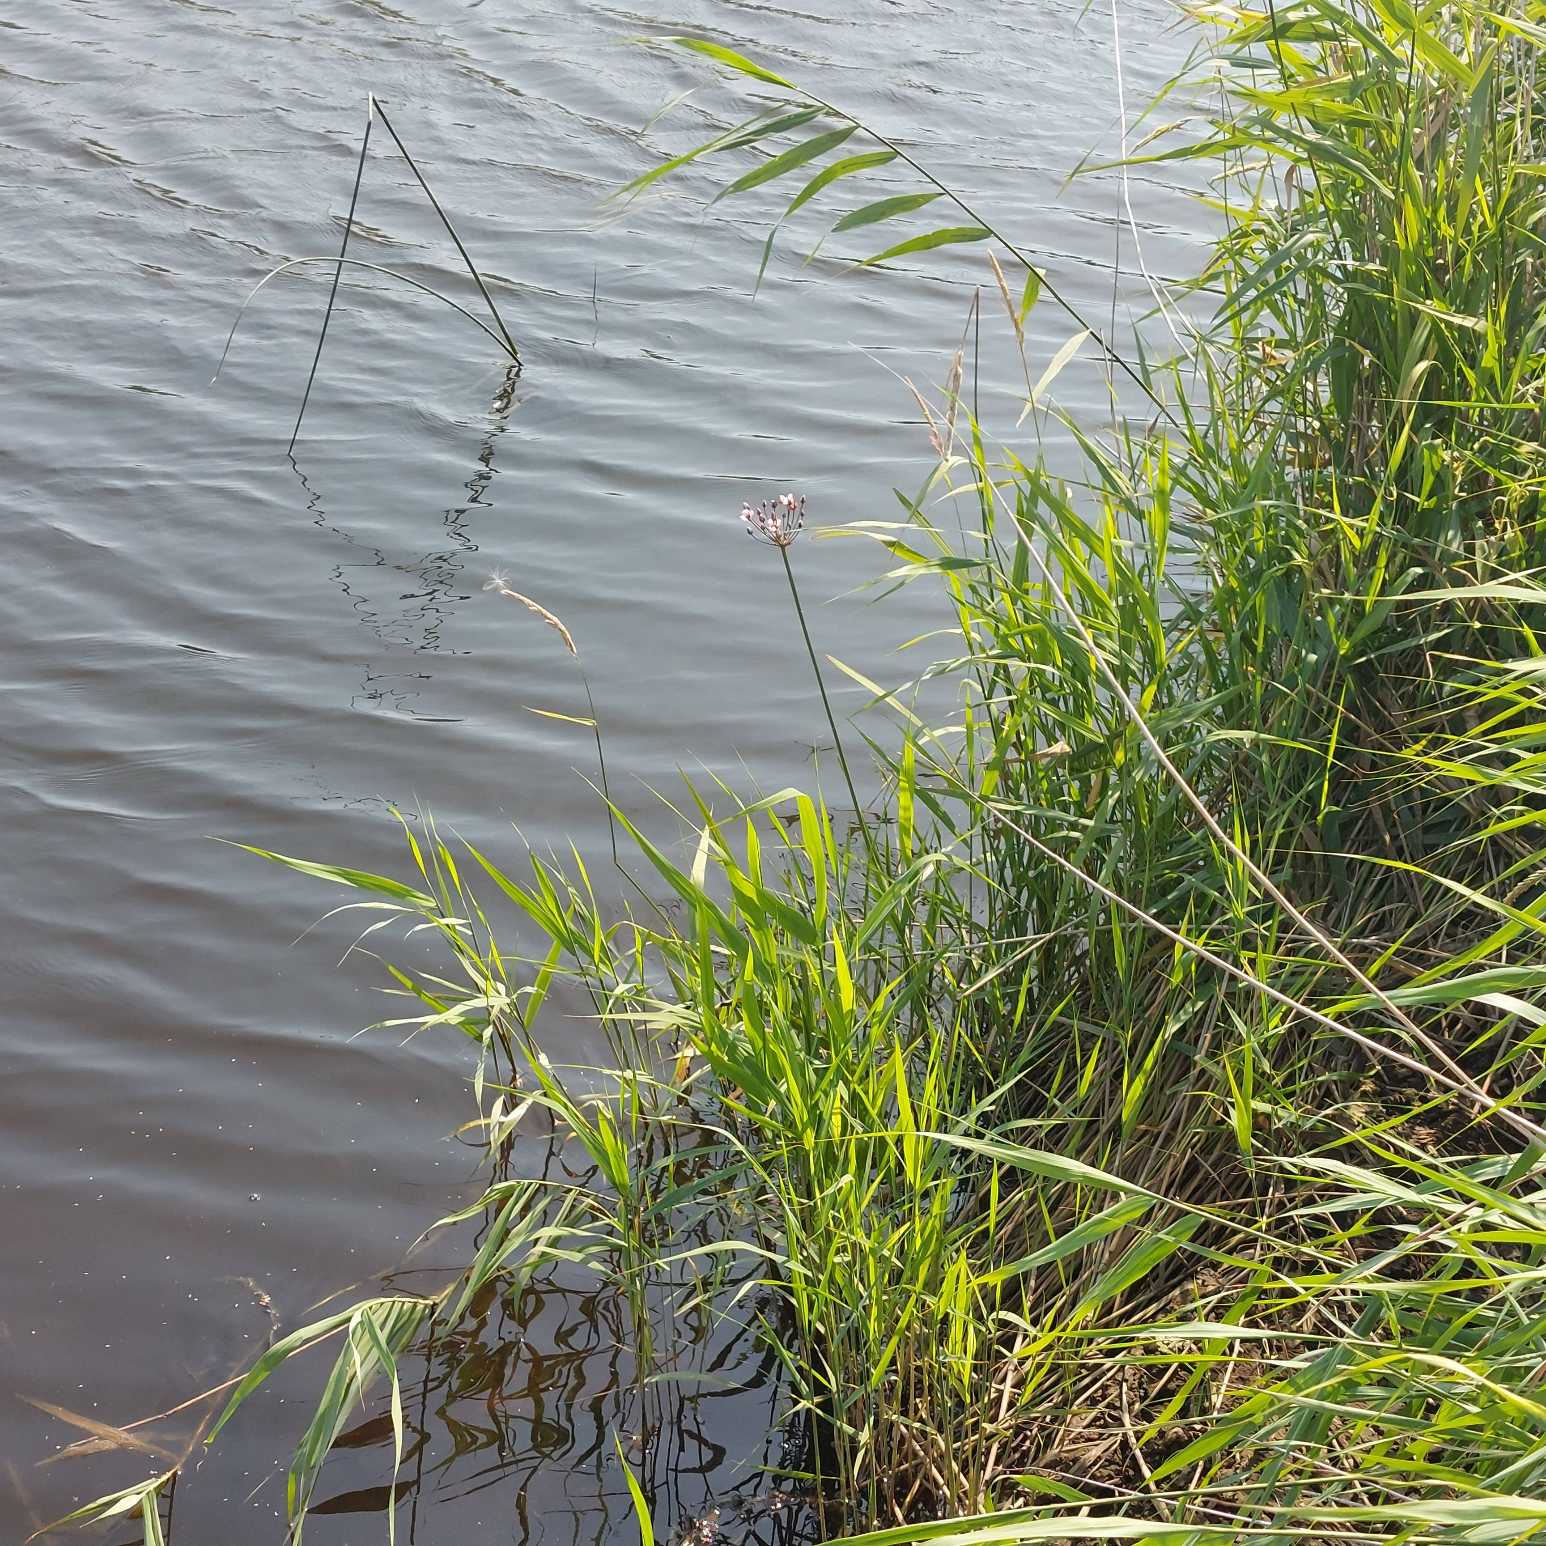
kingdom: Plantae
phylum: Tracheophyta
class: Liliopsida
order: Alismatales
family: Butomaceae
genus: Butomus
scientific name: Butomus umbellatus
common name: Brudelys
